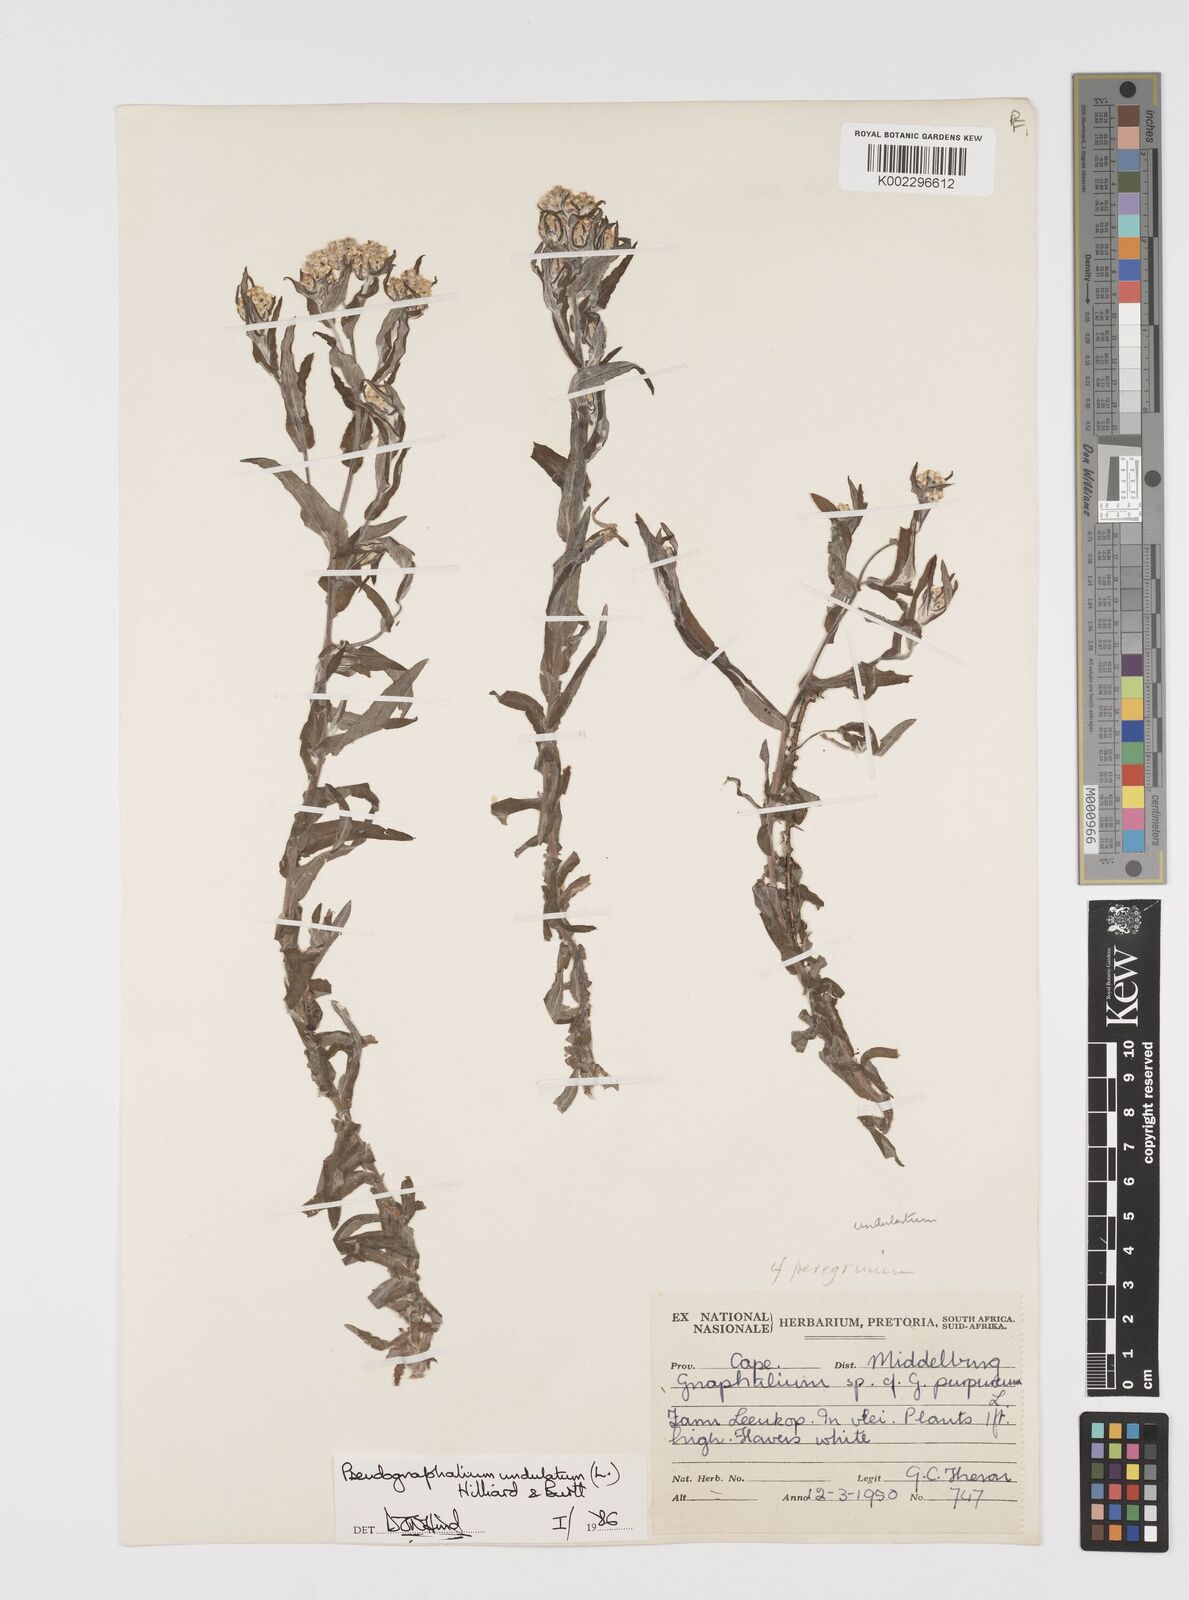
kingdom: Plantae
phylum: Tracheophyta
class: Magnoliopsida
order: Asterales
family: Asteraceae
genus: Pseudognaphalium
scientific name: Pseudognaphalium undulatum
